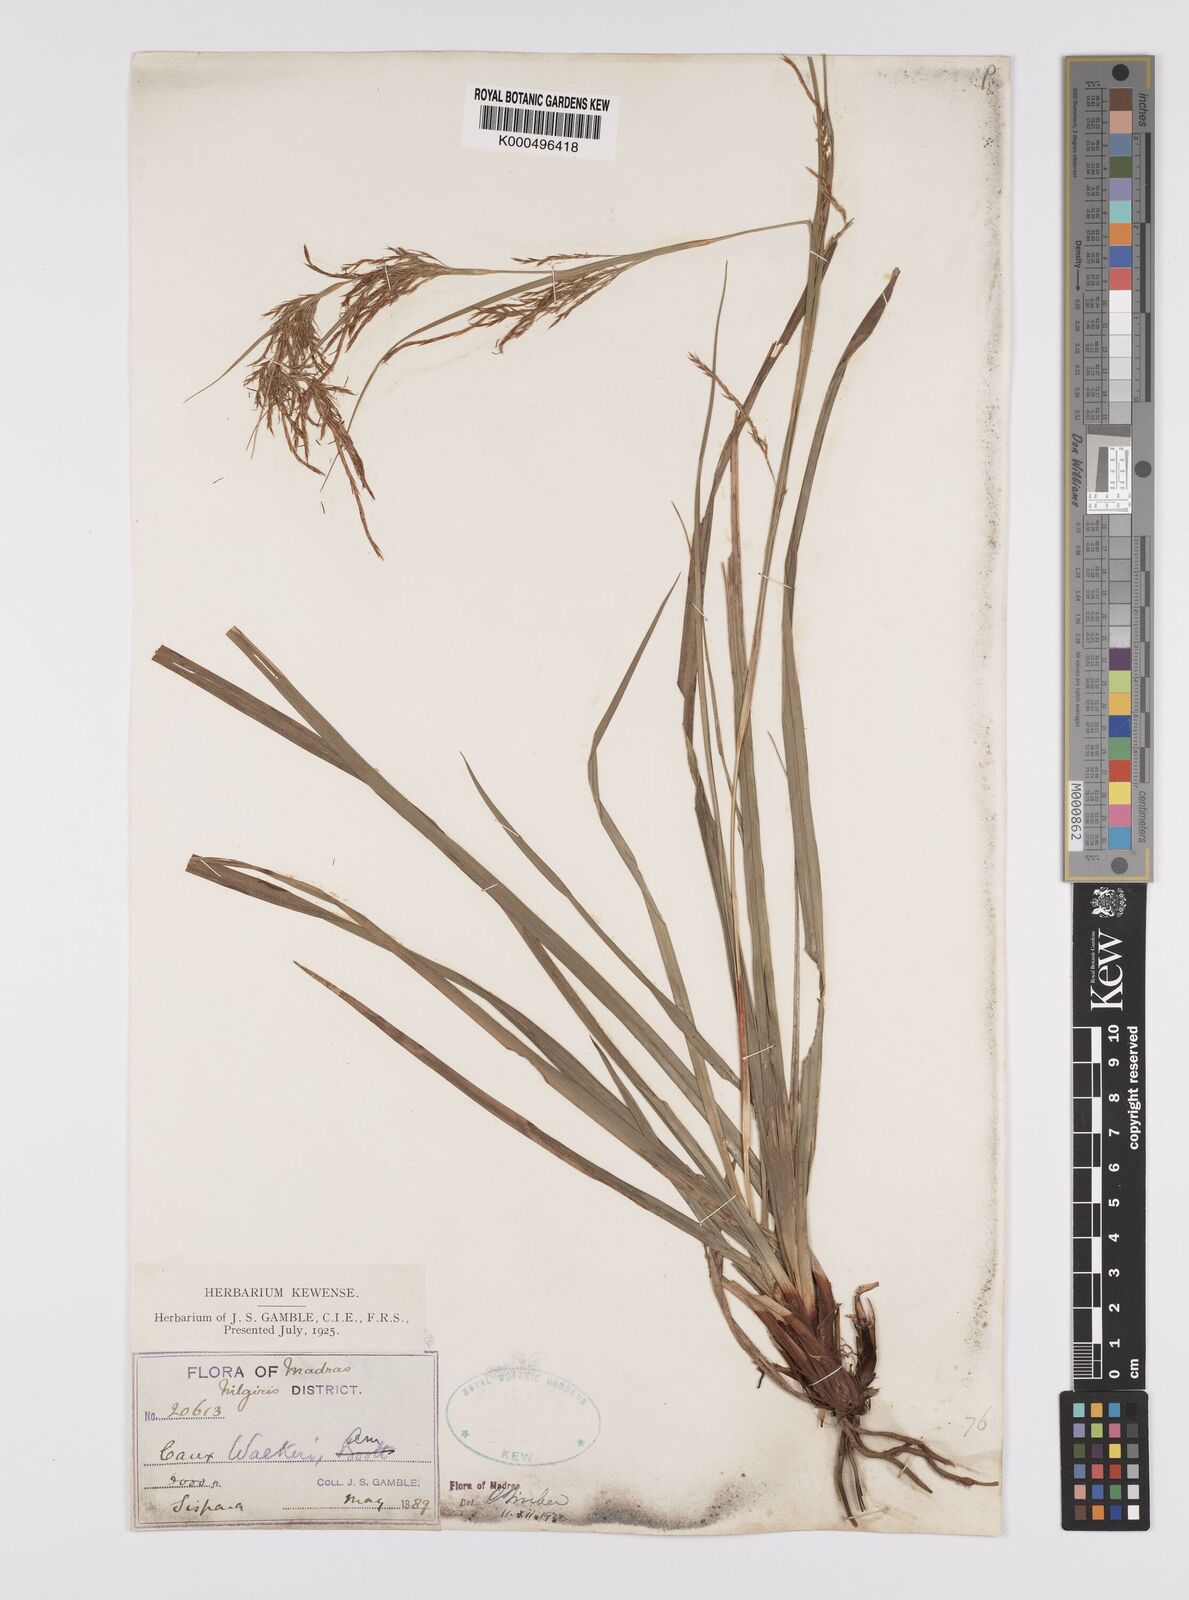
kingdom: Plantae
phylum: Tracheophyta
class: Liliopsida
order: Poales
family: Cyperaceae
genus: Carex
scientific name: Carex walkeri
